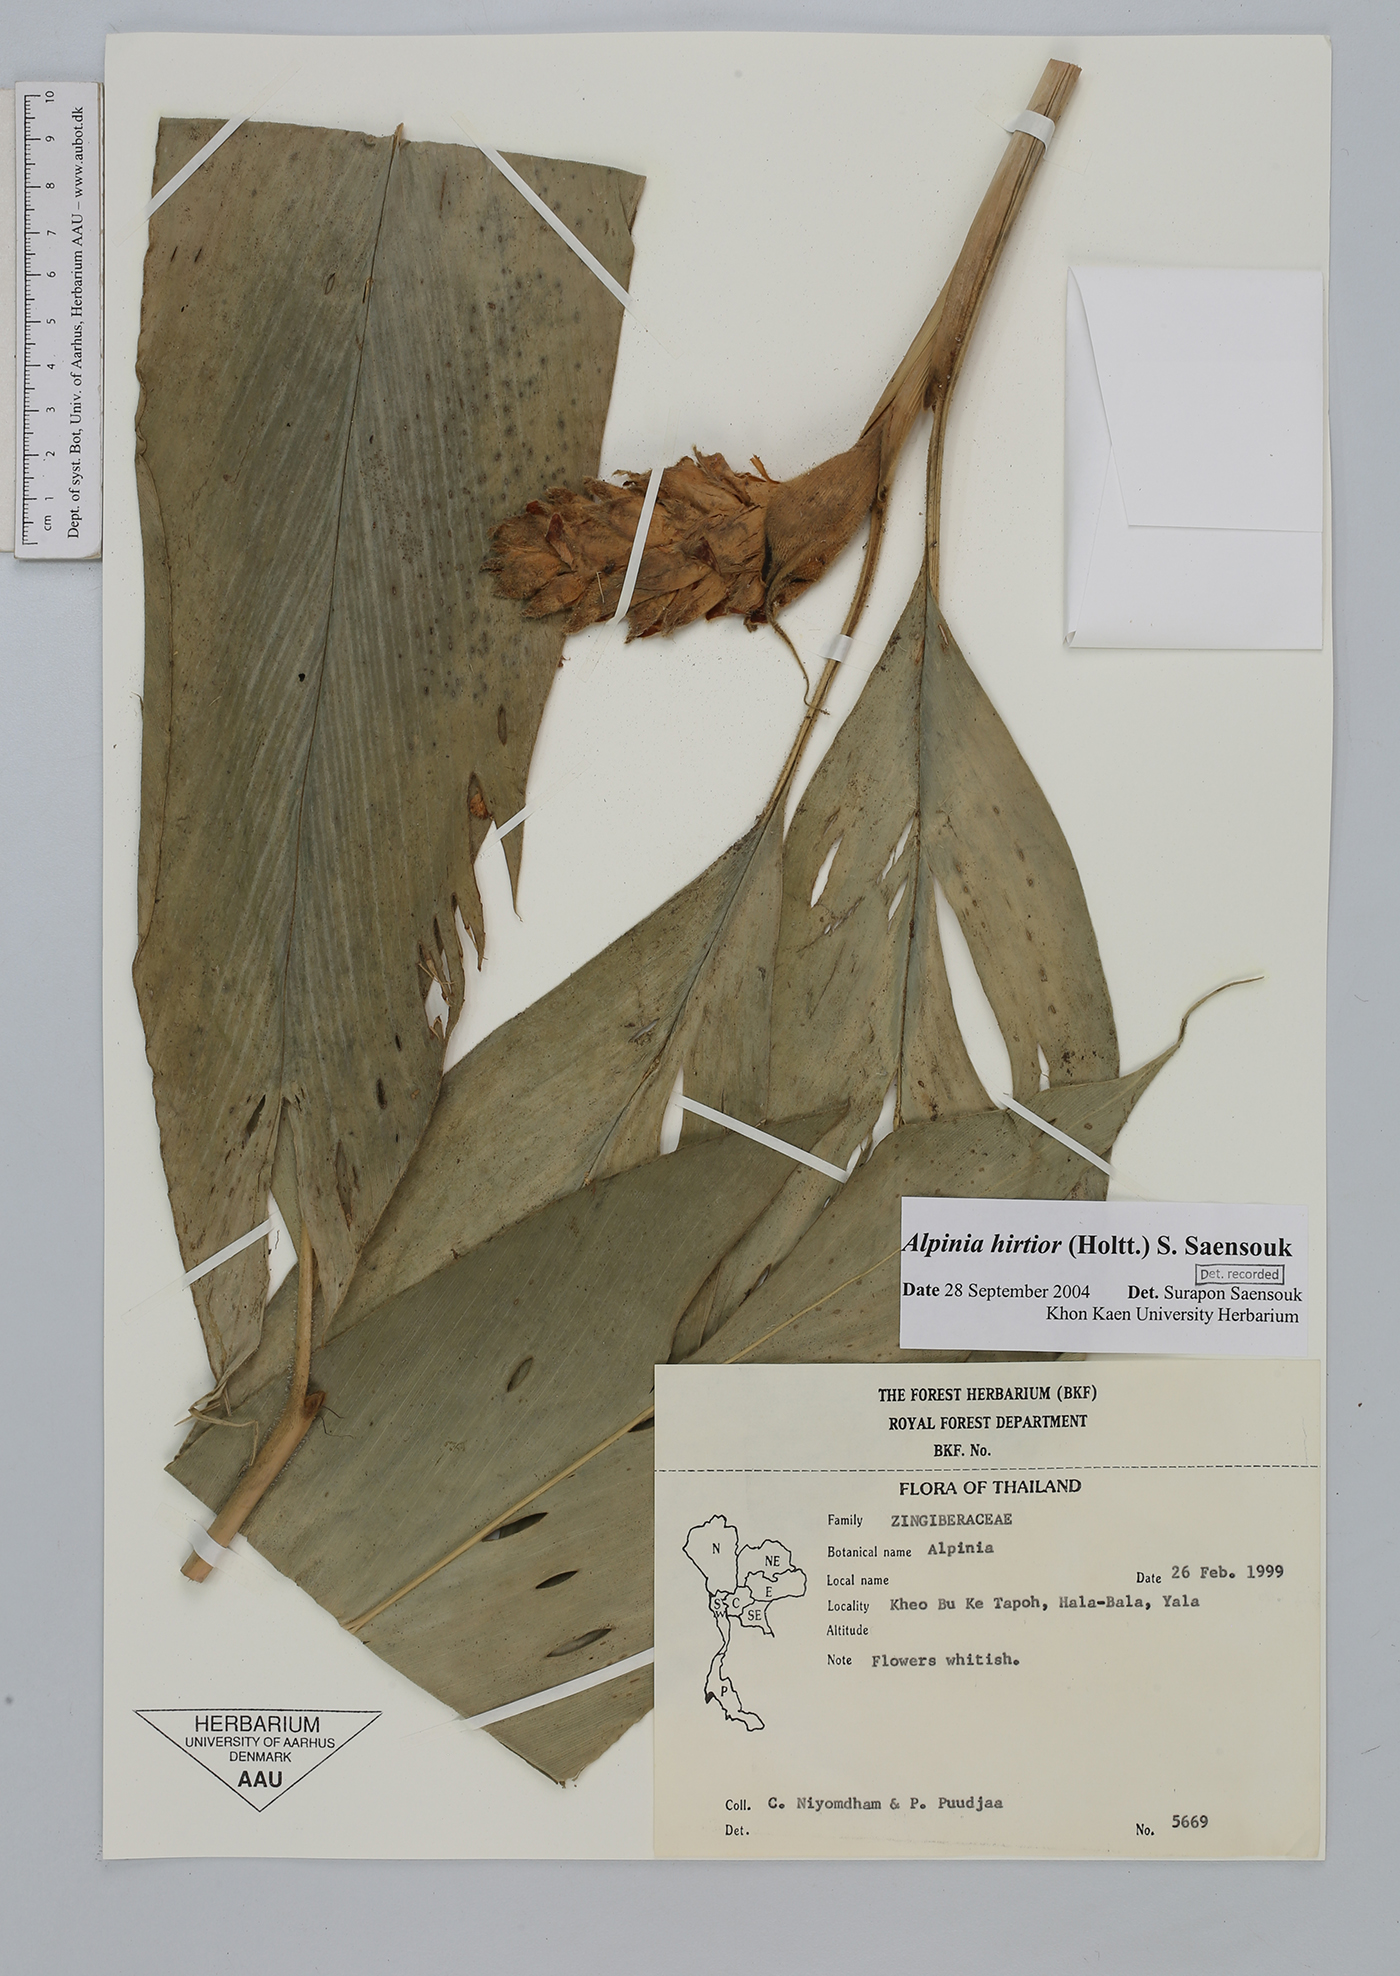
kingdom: Plantae
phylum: Tracheophyta
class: Liliopsida
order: Zingiberales
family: Zingiberaceae
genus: Alpinia
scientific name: Alpinia
